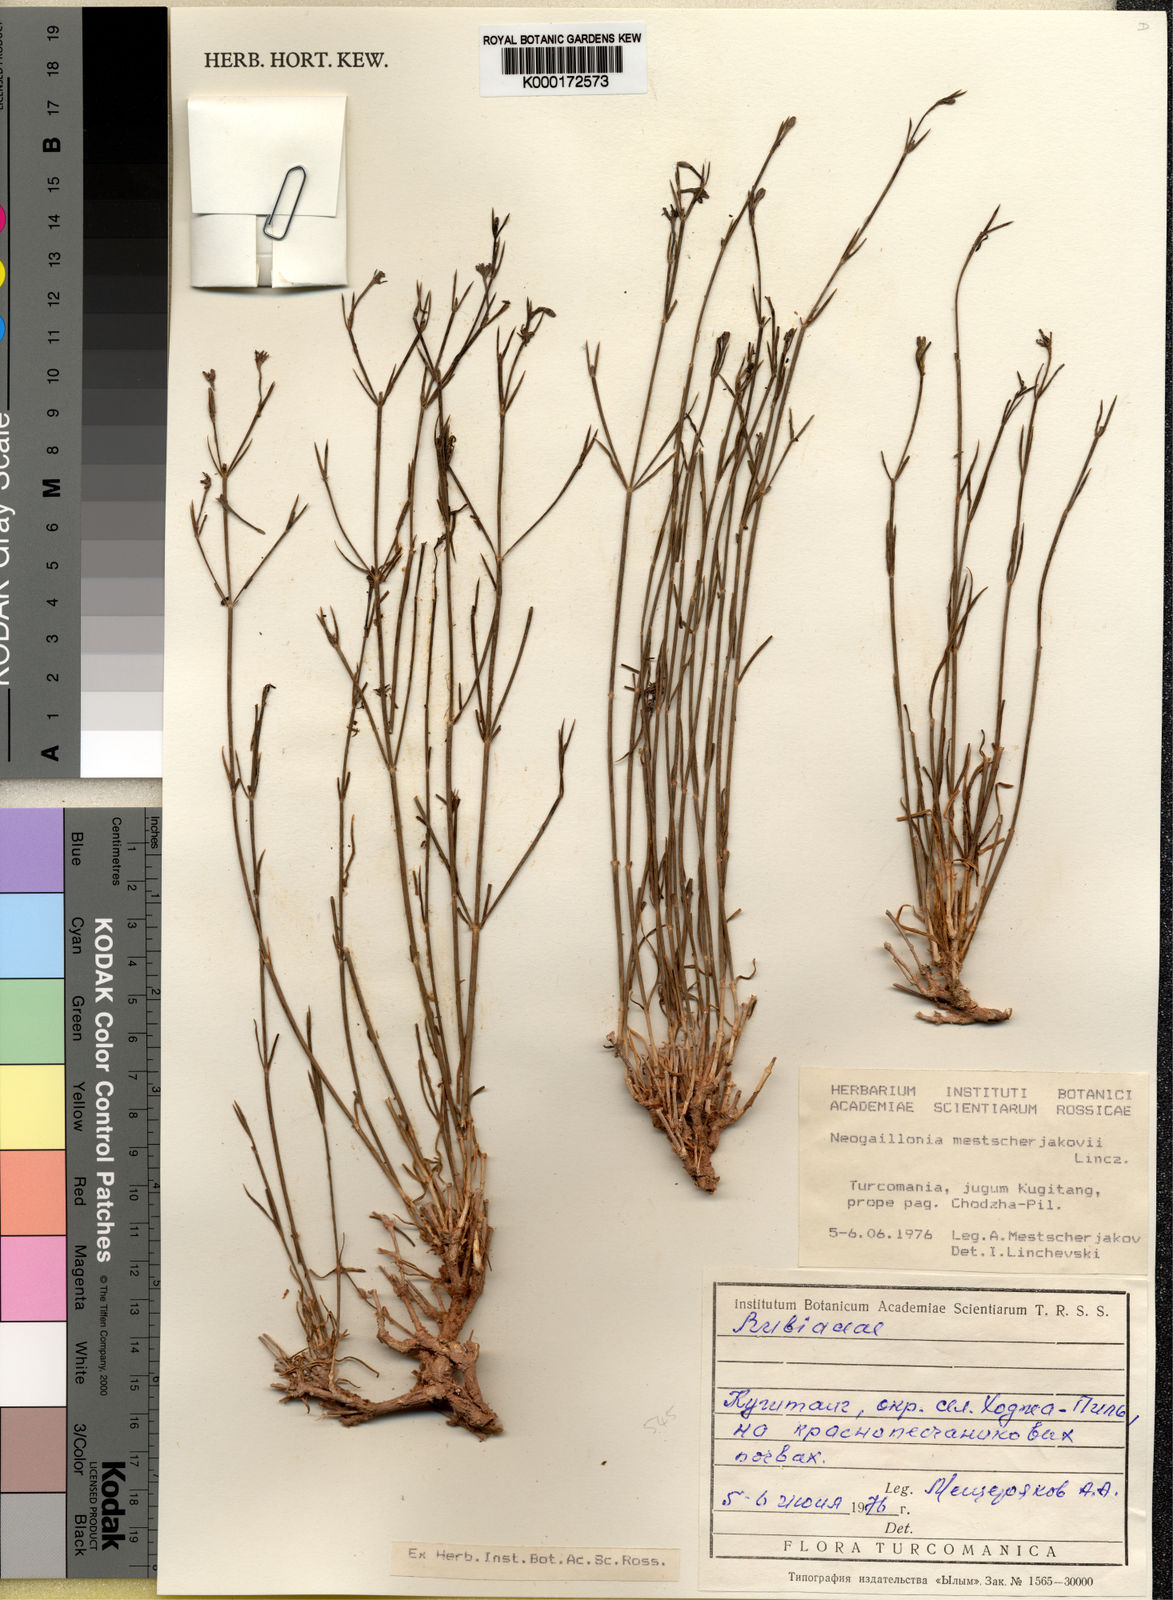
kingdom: Plantae
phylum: Tracheophyta
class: Magnoliopsida
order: Gentianales
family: Rubiaceae
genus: Plocama
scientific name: Plocama mestscherjakovii
